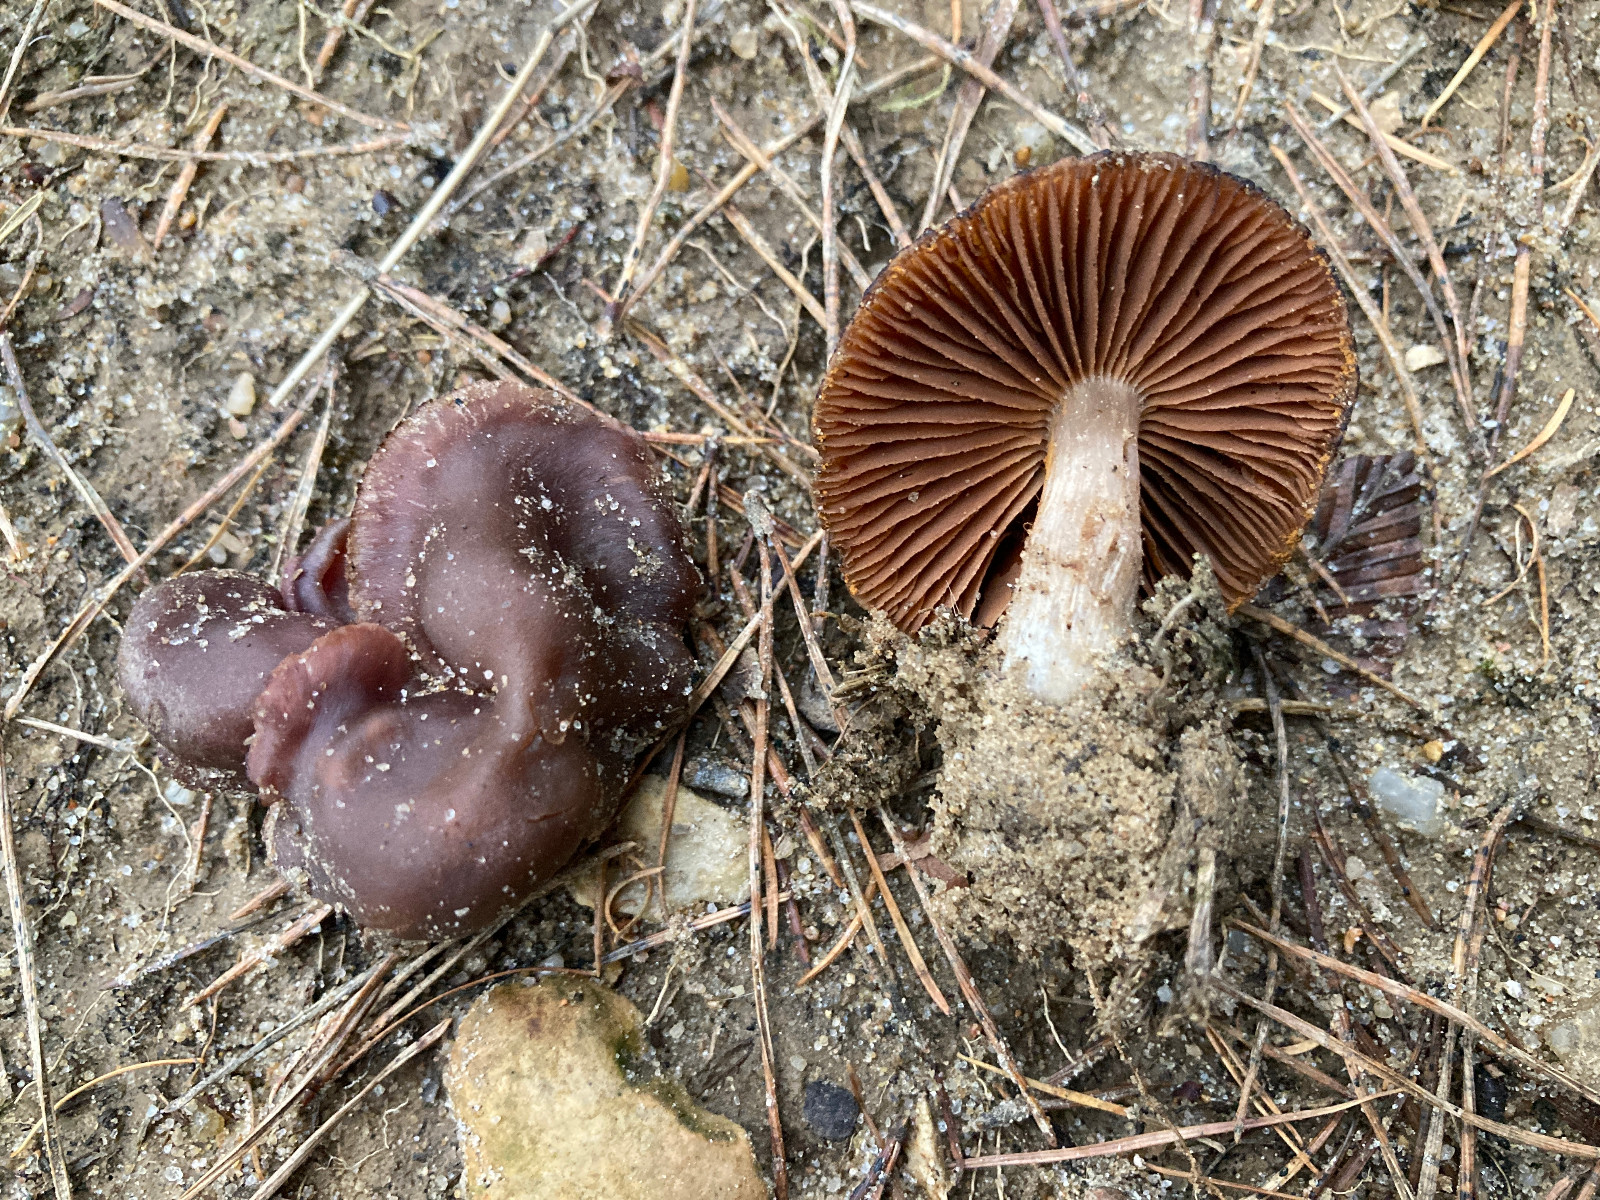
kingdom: Fungi
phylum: Basidiomycota
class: Agaricomycetes
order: Agaricales
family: Cortinariaceae
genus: Cortinarius
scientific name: Cortinarius
